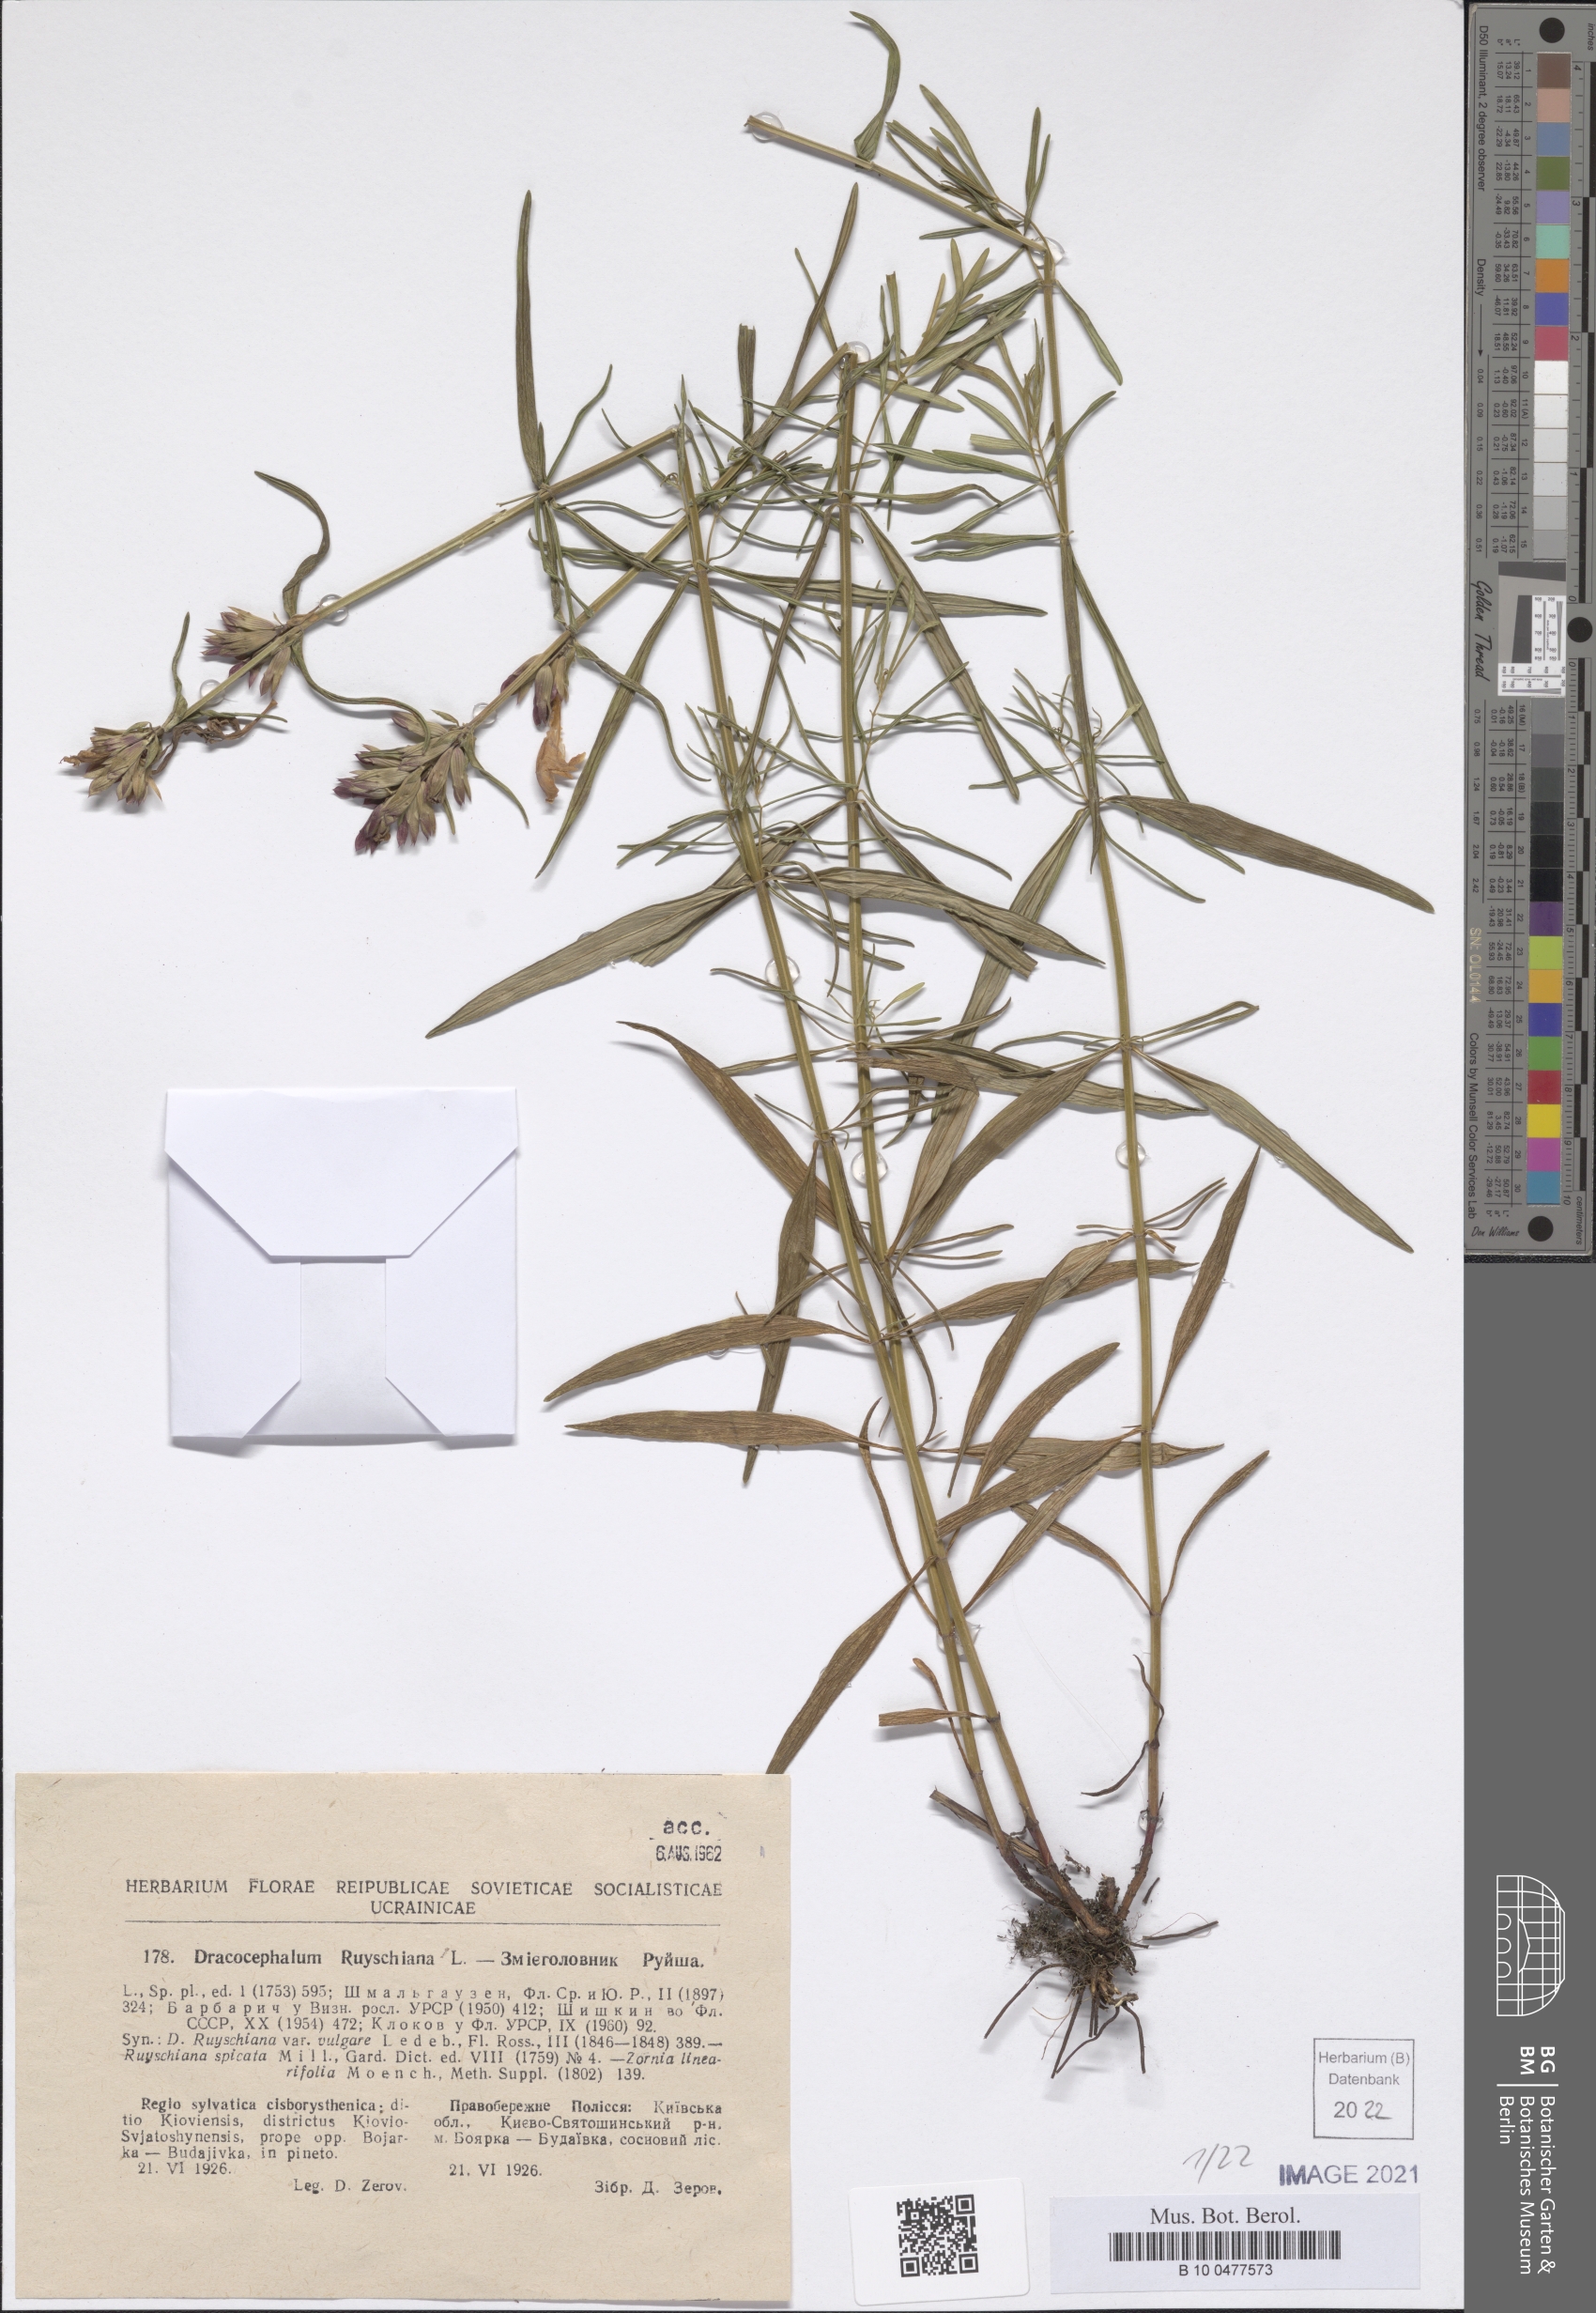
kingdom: Plantae
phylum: Tracheophyta
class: Magnoliopsida
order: Lamiales
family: Lamiaceae
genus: Dracocephalum
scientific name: Dracocephalum ruyschiana
